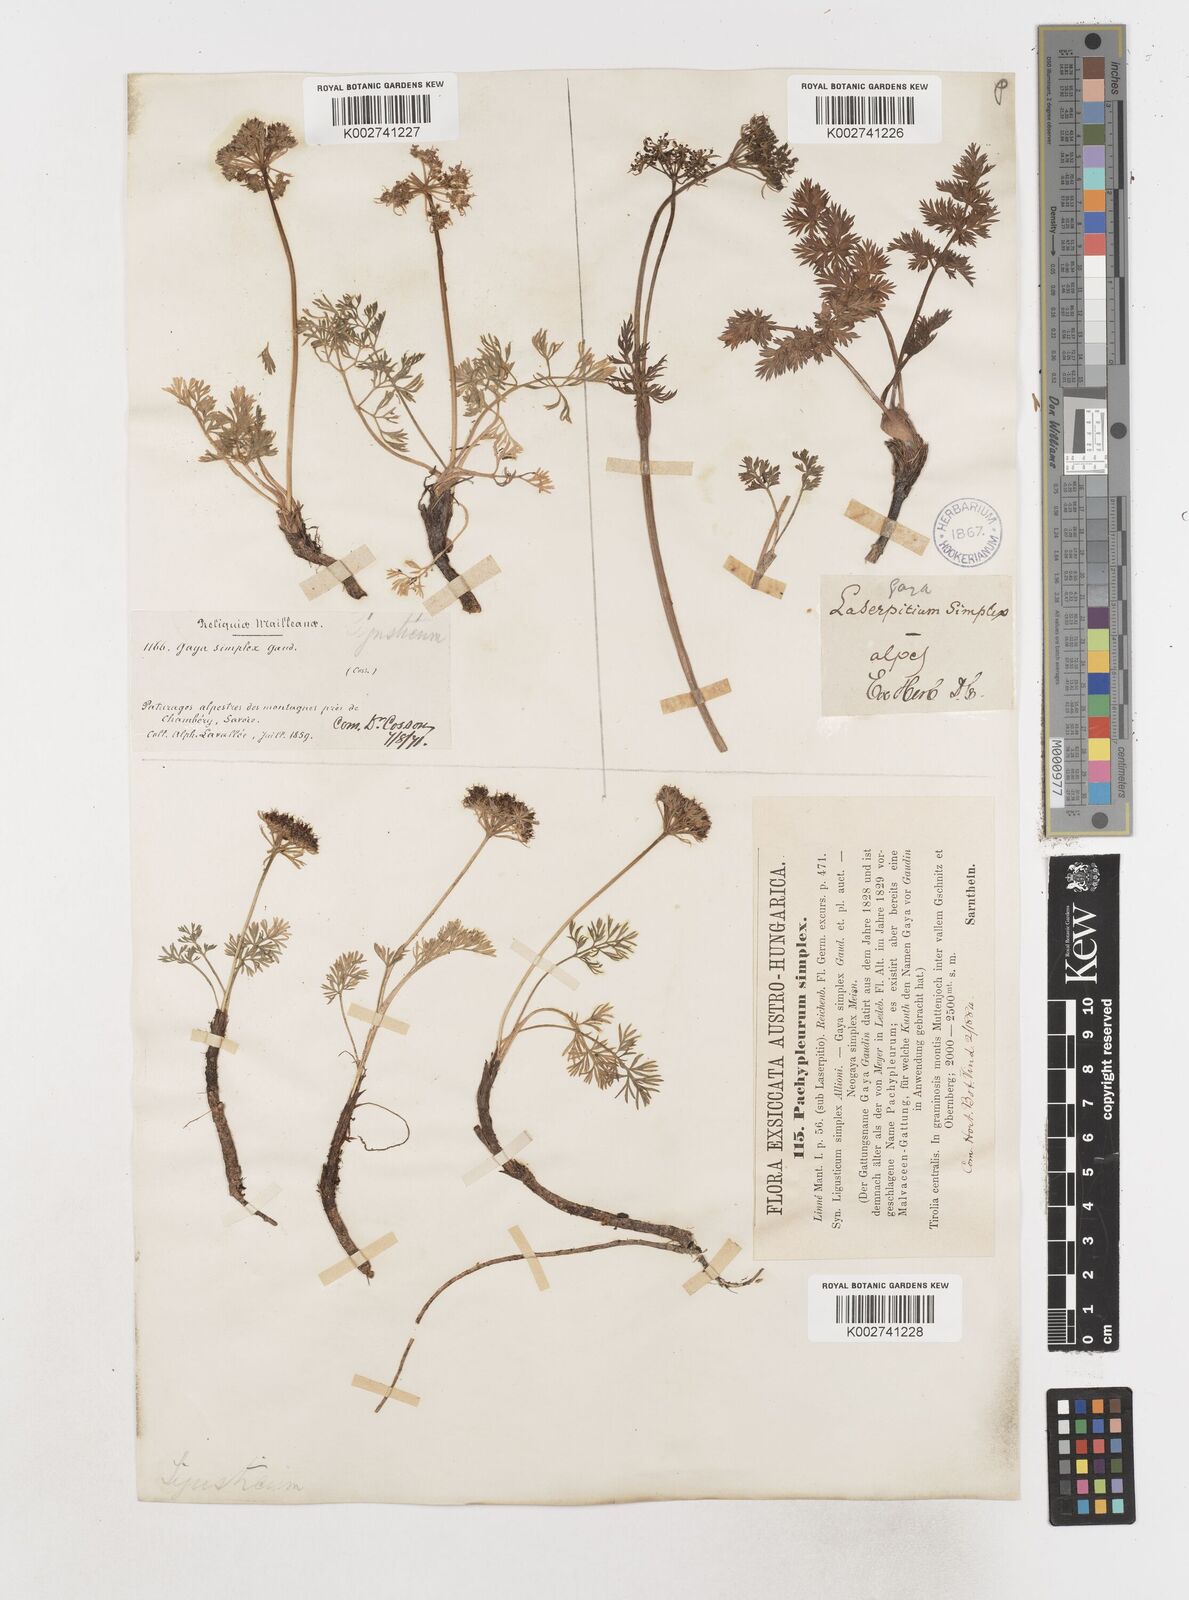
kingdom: Plantae
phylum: Tracheophyta
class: Magnoliopsida
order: Apiales
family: Apiaceae
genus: Pachypleurum
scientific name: Pachypleurum mutellinoides
